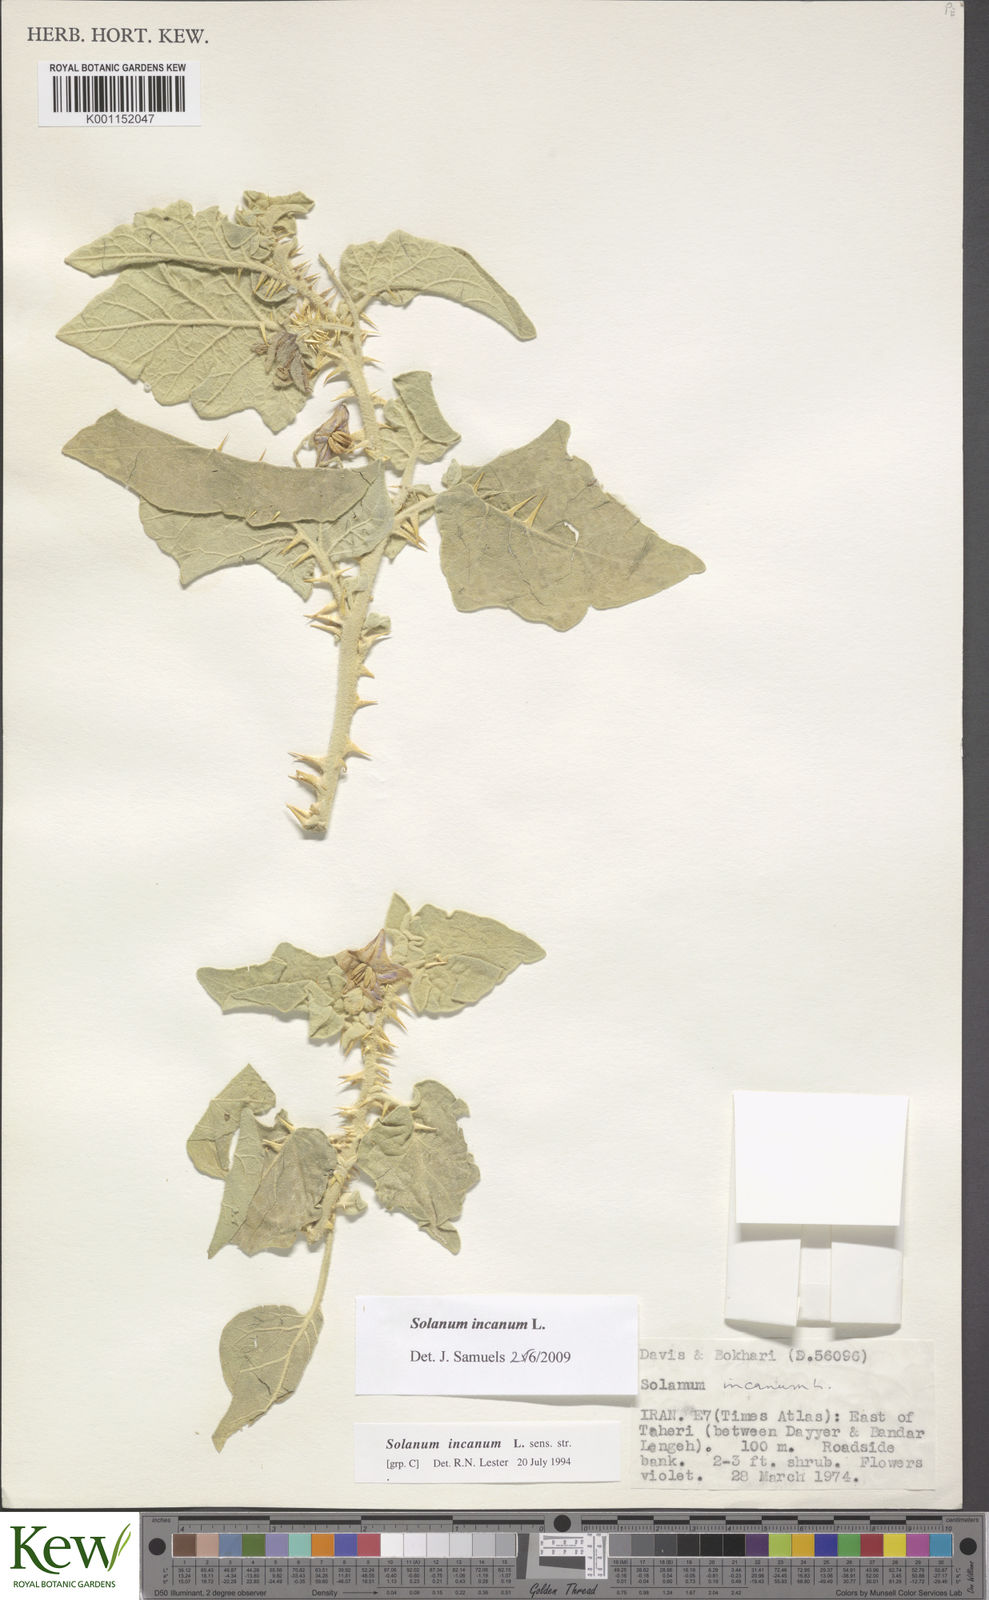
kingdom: Plantae
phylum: Tracheophyta
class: Magnoliopsida
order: Solanales
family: Solanaceae
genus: Solanum
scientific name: Solanum incanum
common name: Bitter apple
